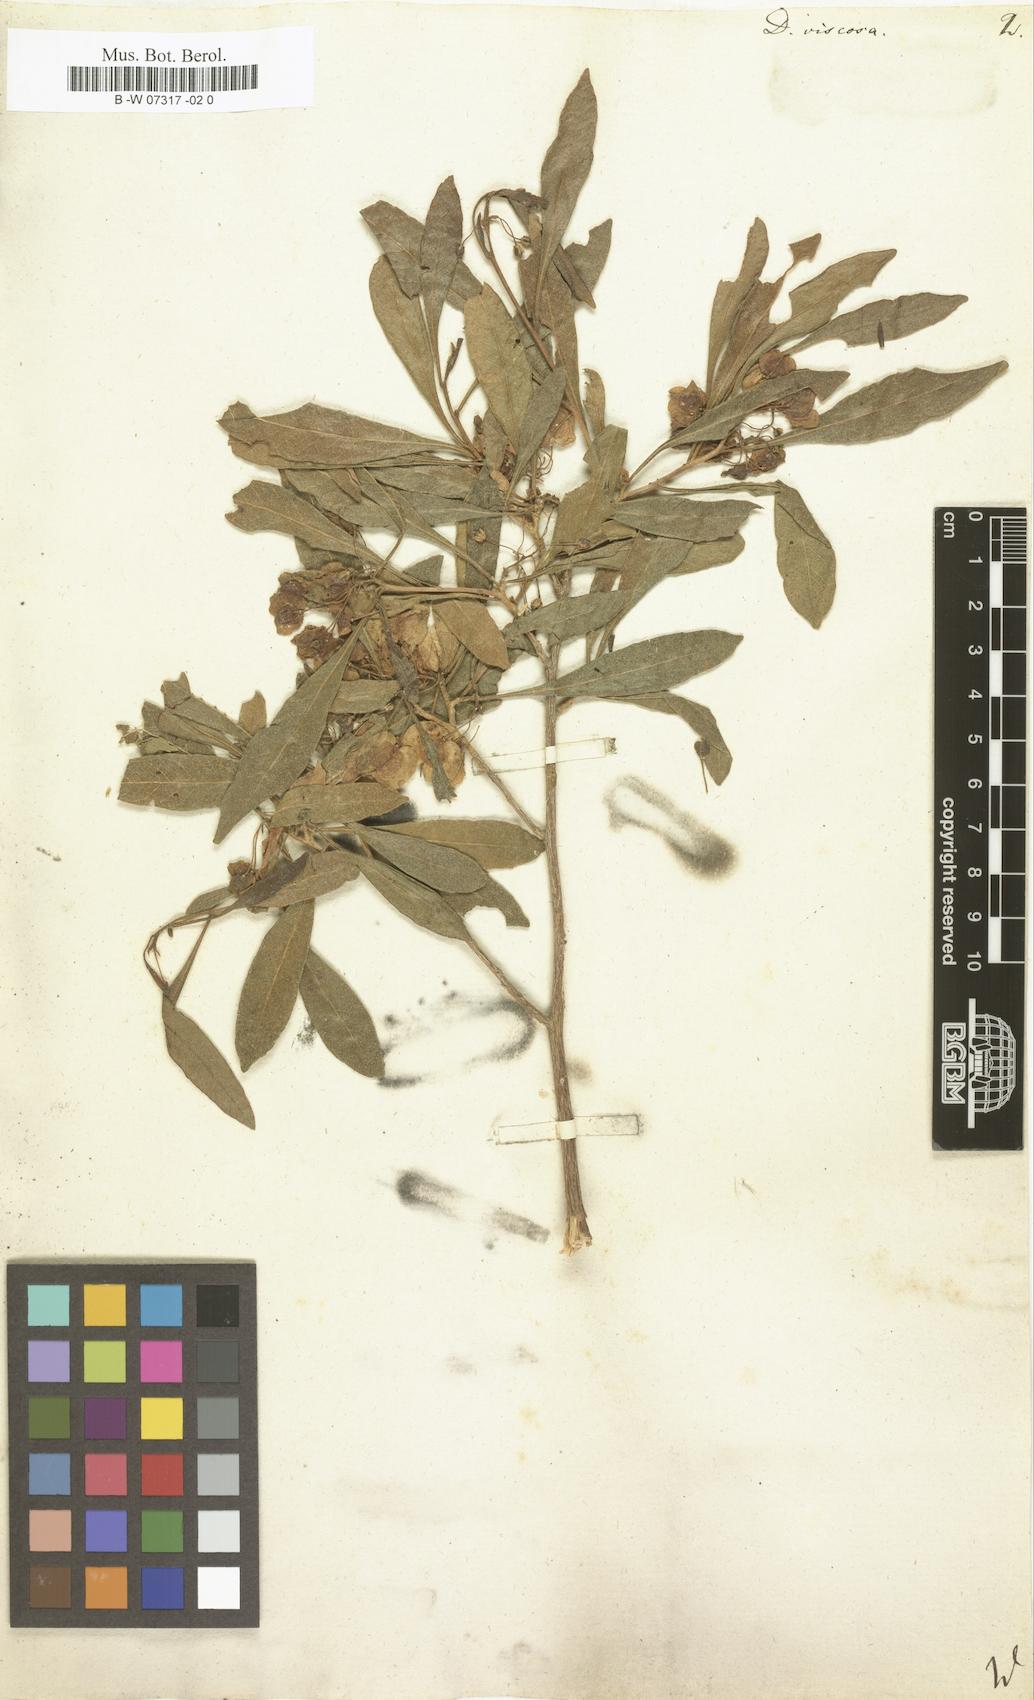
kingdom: Plantae
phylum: Tracheophyta
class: Magnoliopsida
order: Sapindales
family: Sapindaceae
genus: Dodonaea
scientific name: Dodonaea viscosa
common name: Hopbush
